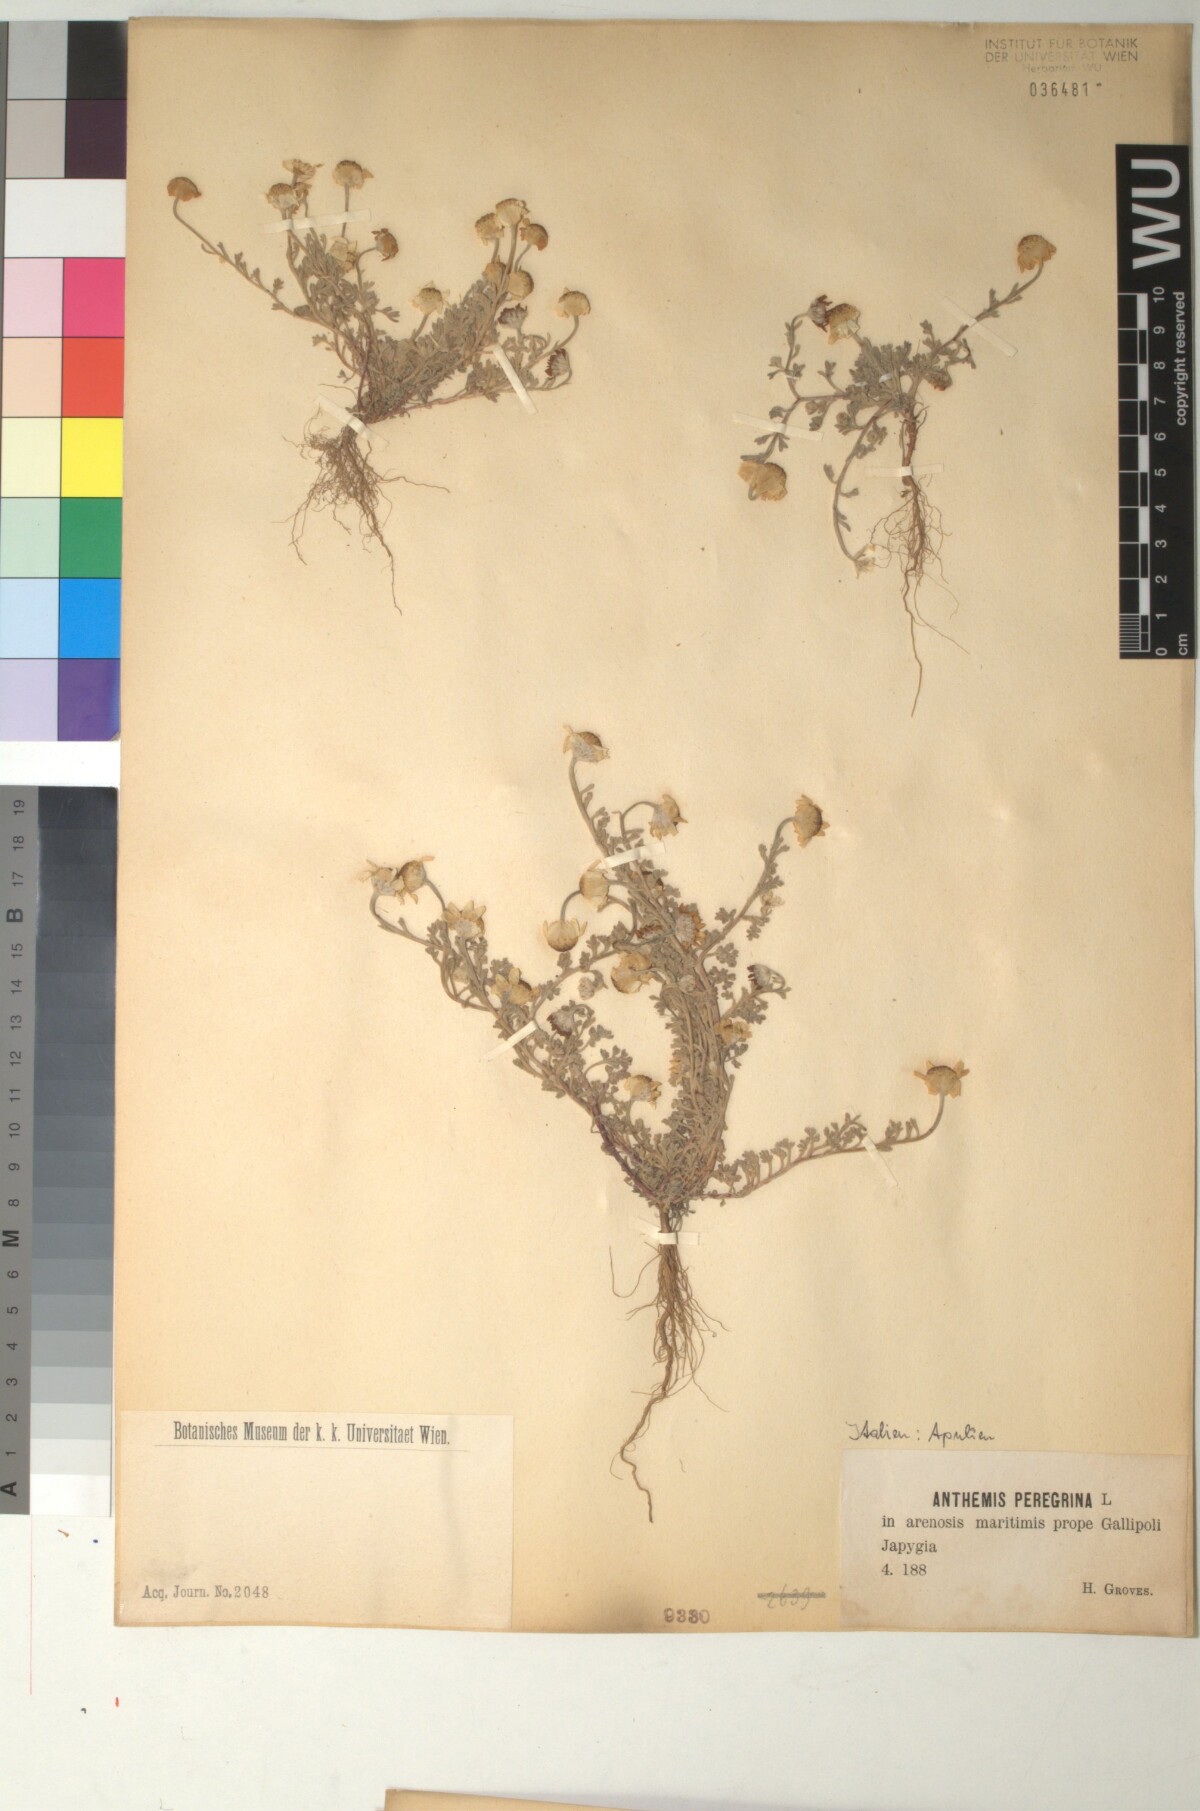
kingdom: Plantae
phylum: Tracheophyta
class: Magnoliopsida
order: Asterales
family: Asteraceae
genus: Anthemis
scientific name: Anthemis tomentosa
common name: Woolly chamomile
